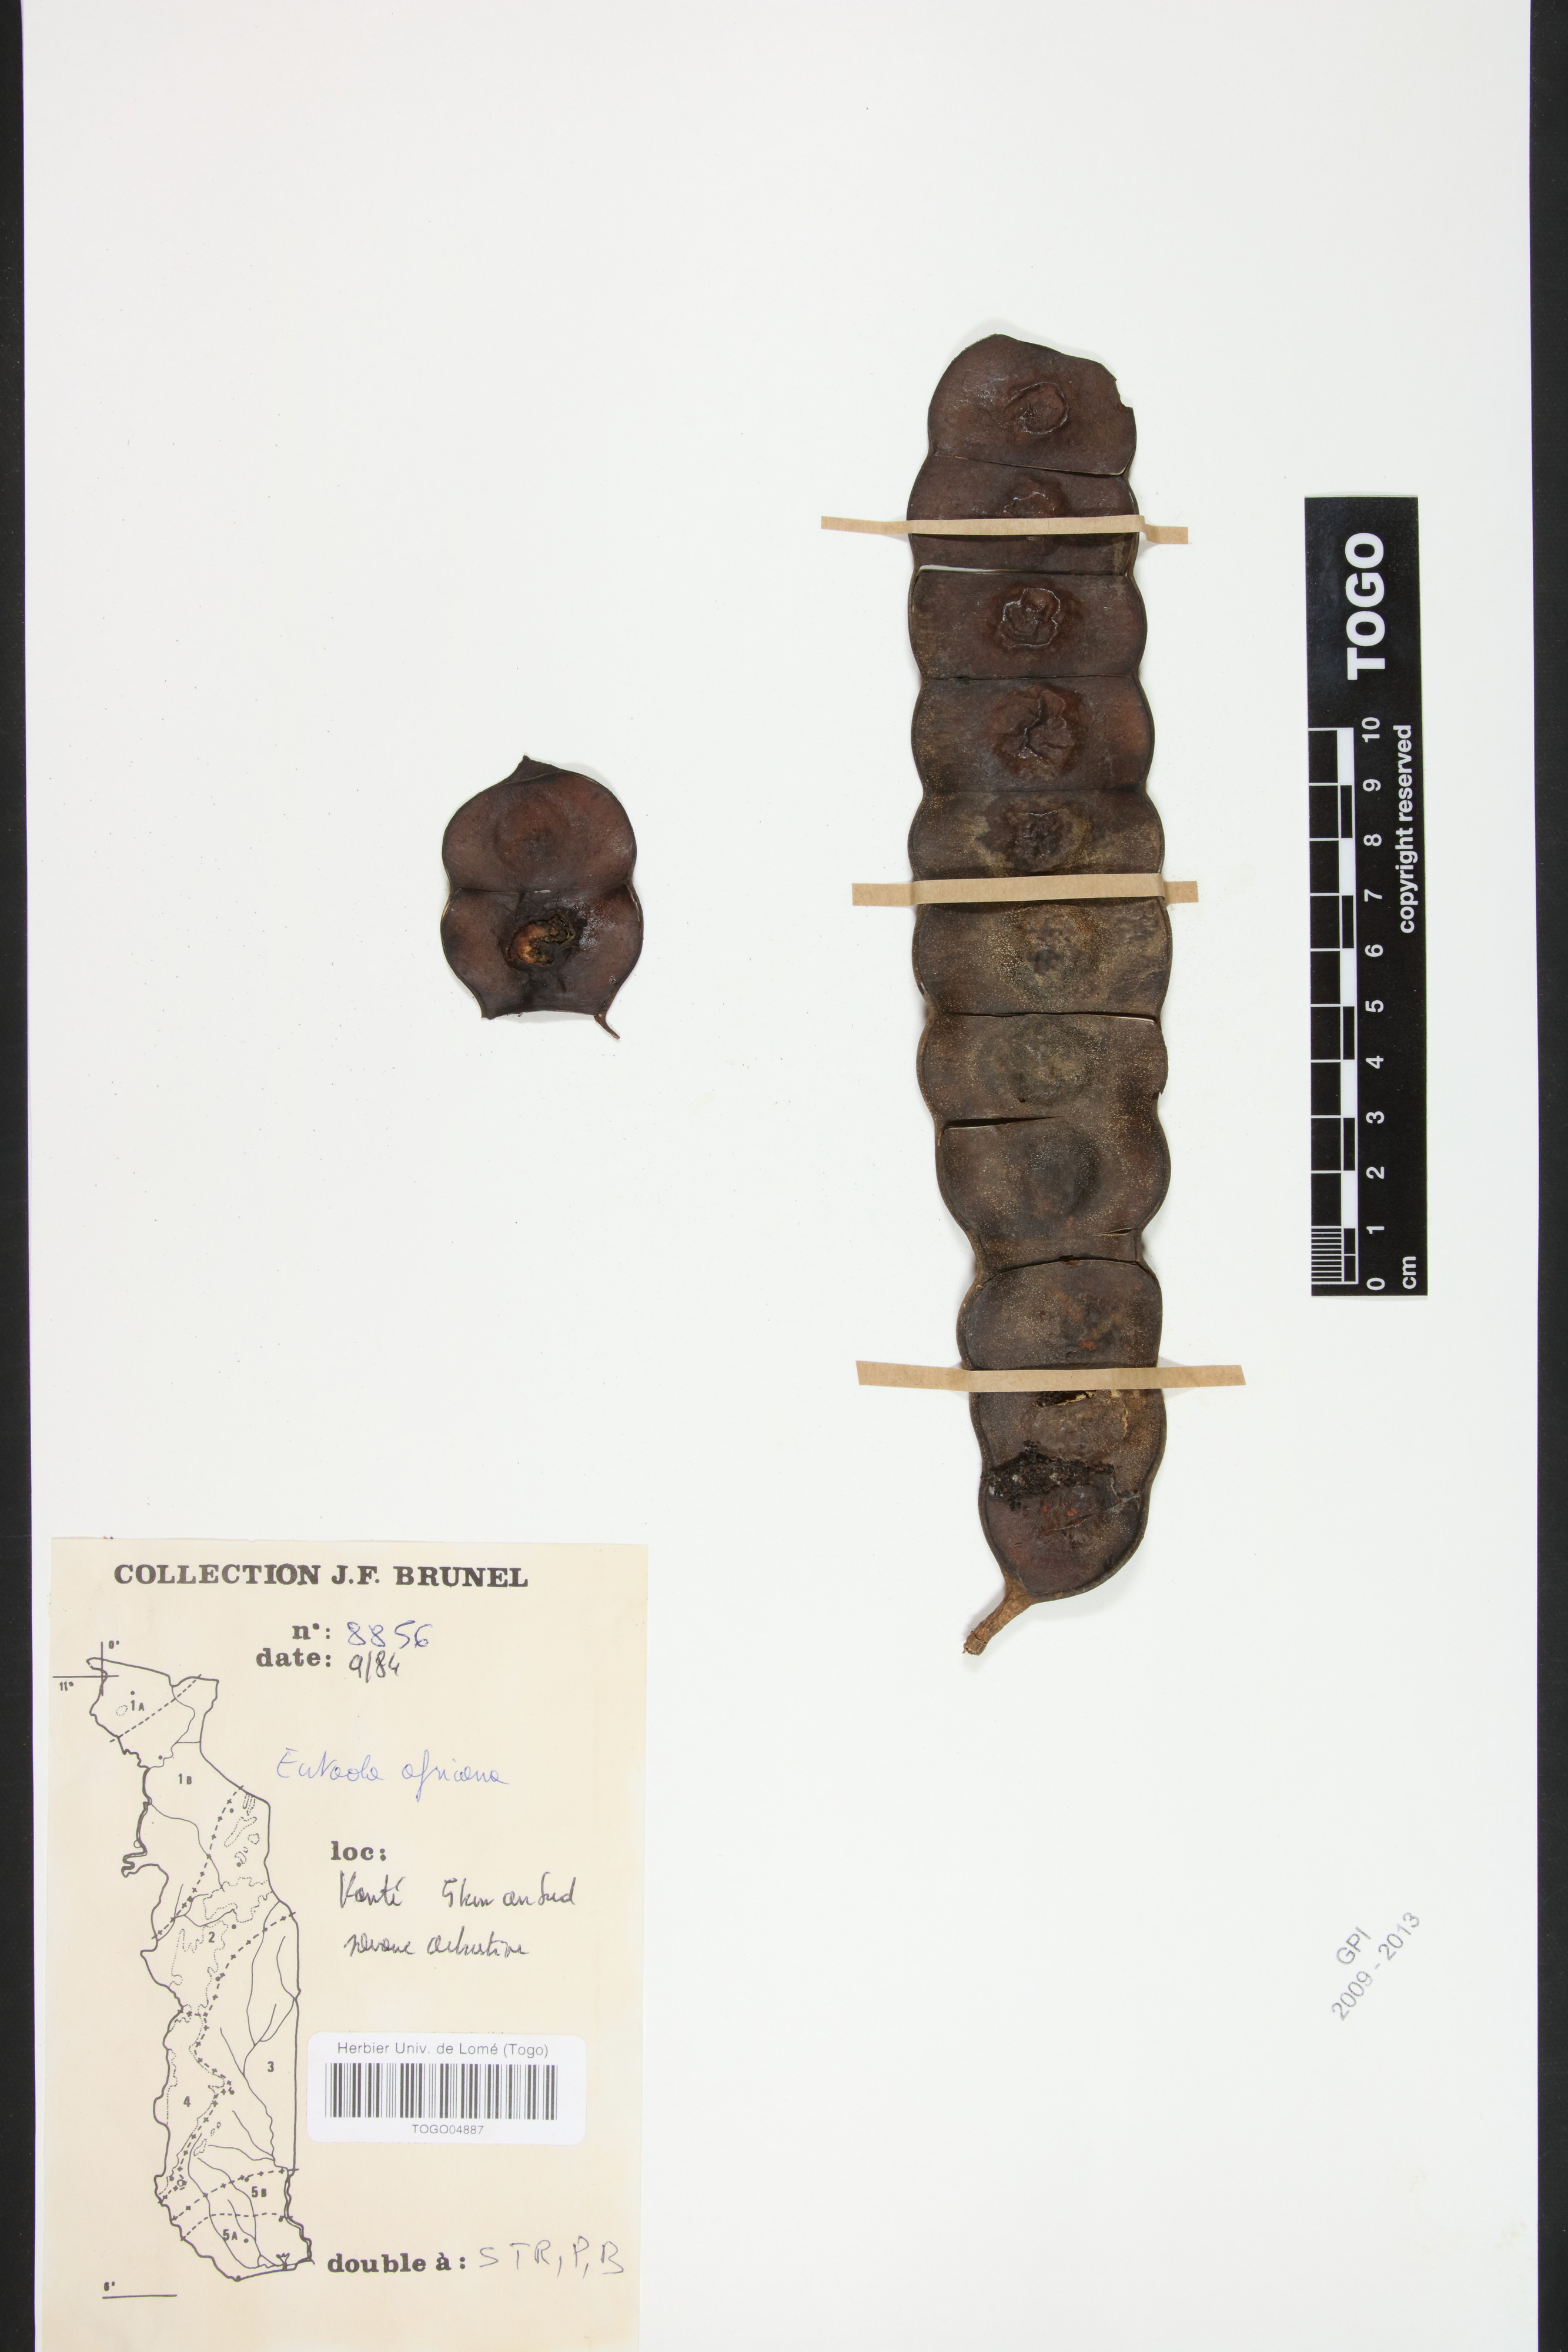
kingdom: Plantae
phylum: Tracheophyta
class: Magnoliopsida
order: Fabales
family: Fabaceae
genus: Entada
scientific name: Entada africana
